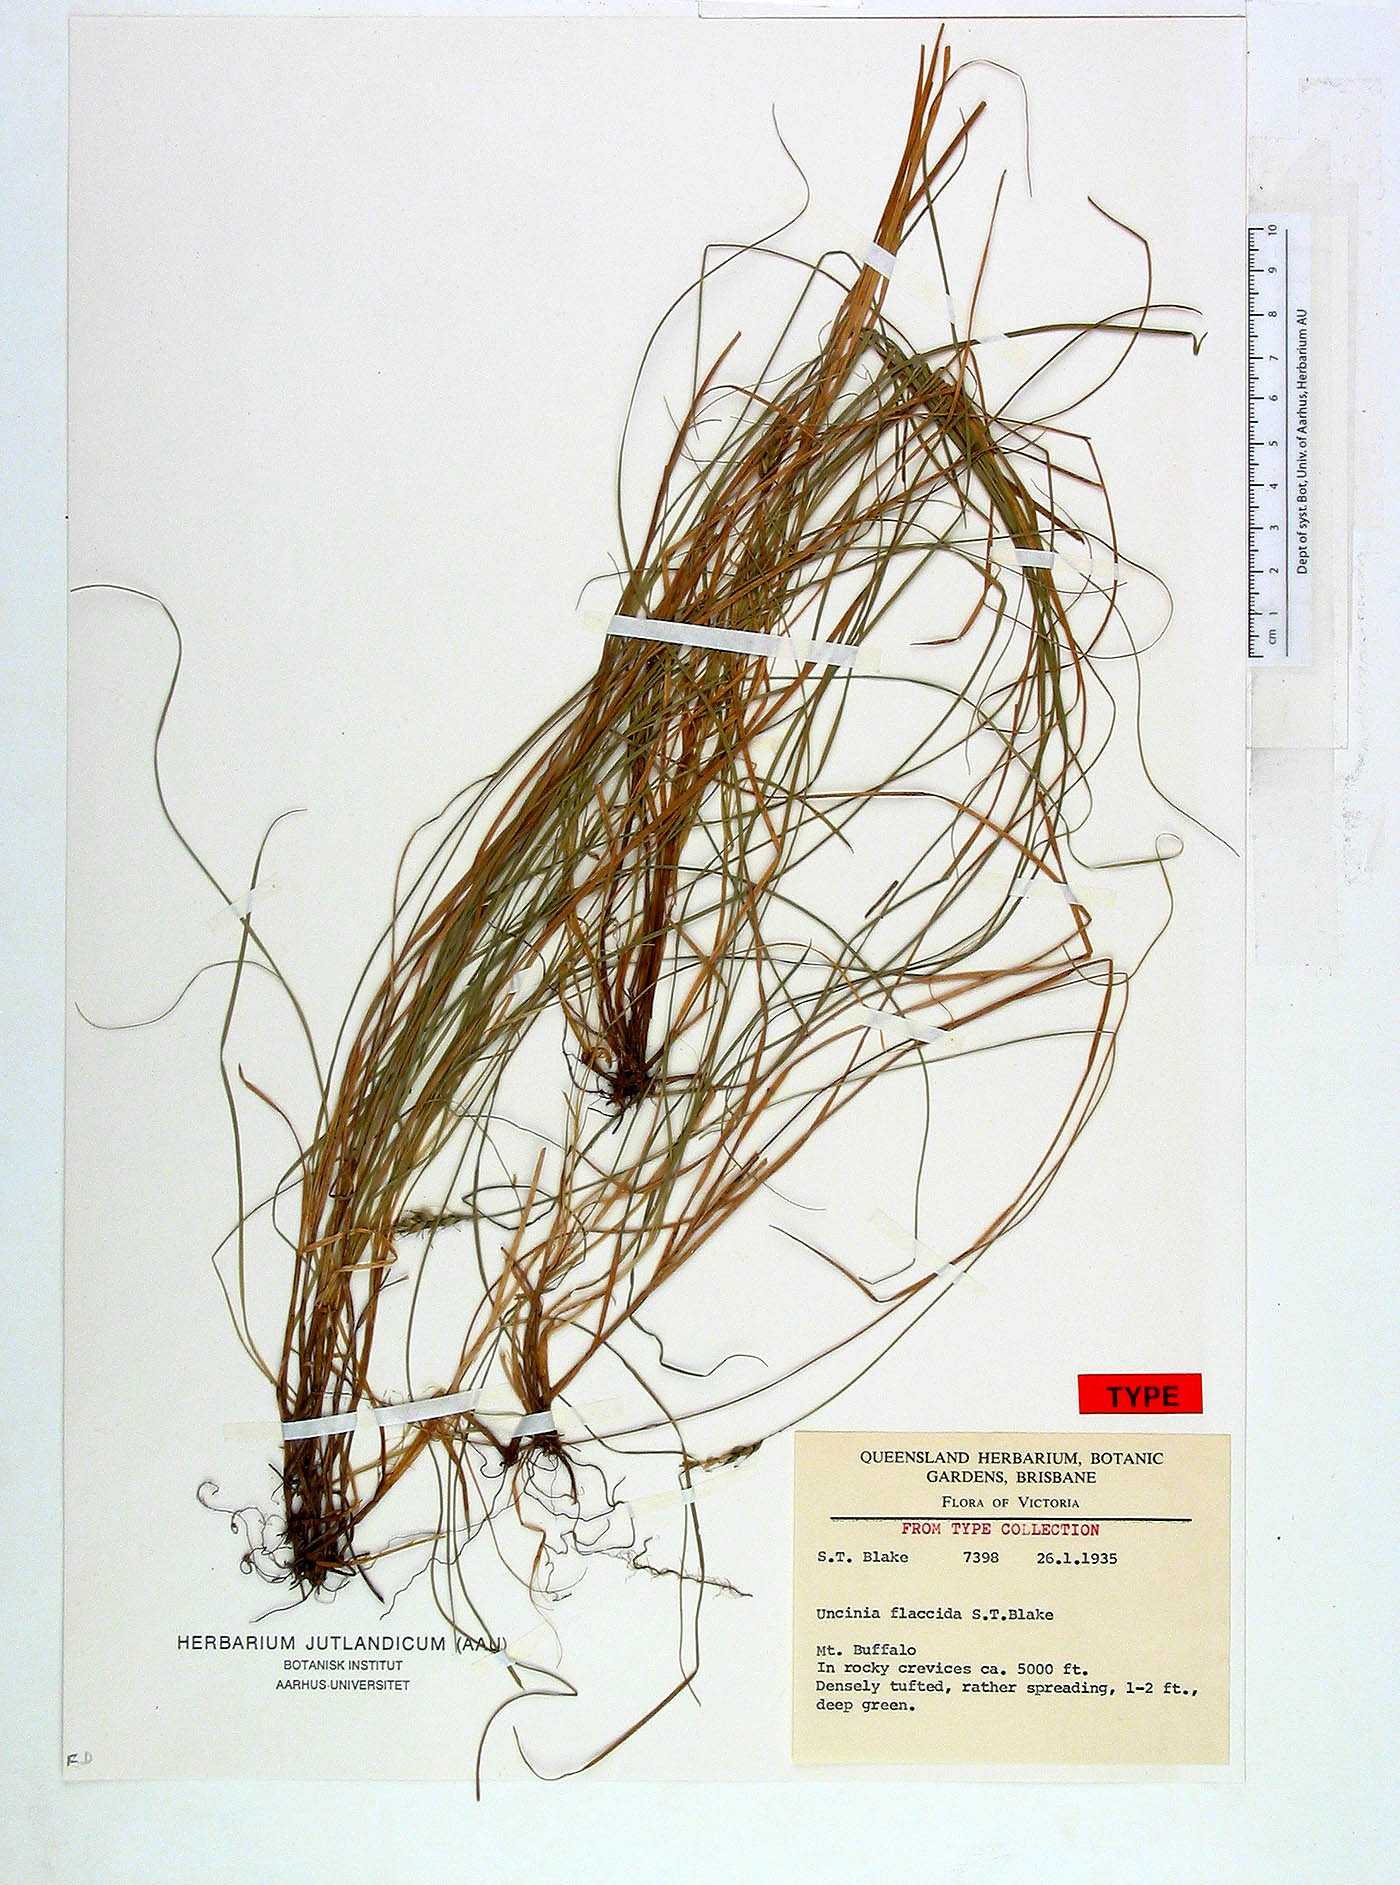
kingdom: Plantae
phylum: Tracheophyta
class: Liliopsida
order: Poales
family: Cyperaceae
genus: Carex
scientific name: Carex flaccida
